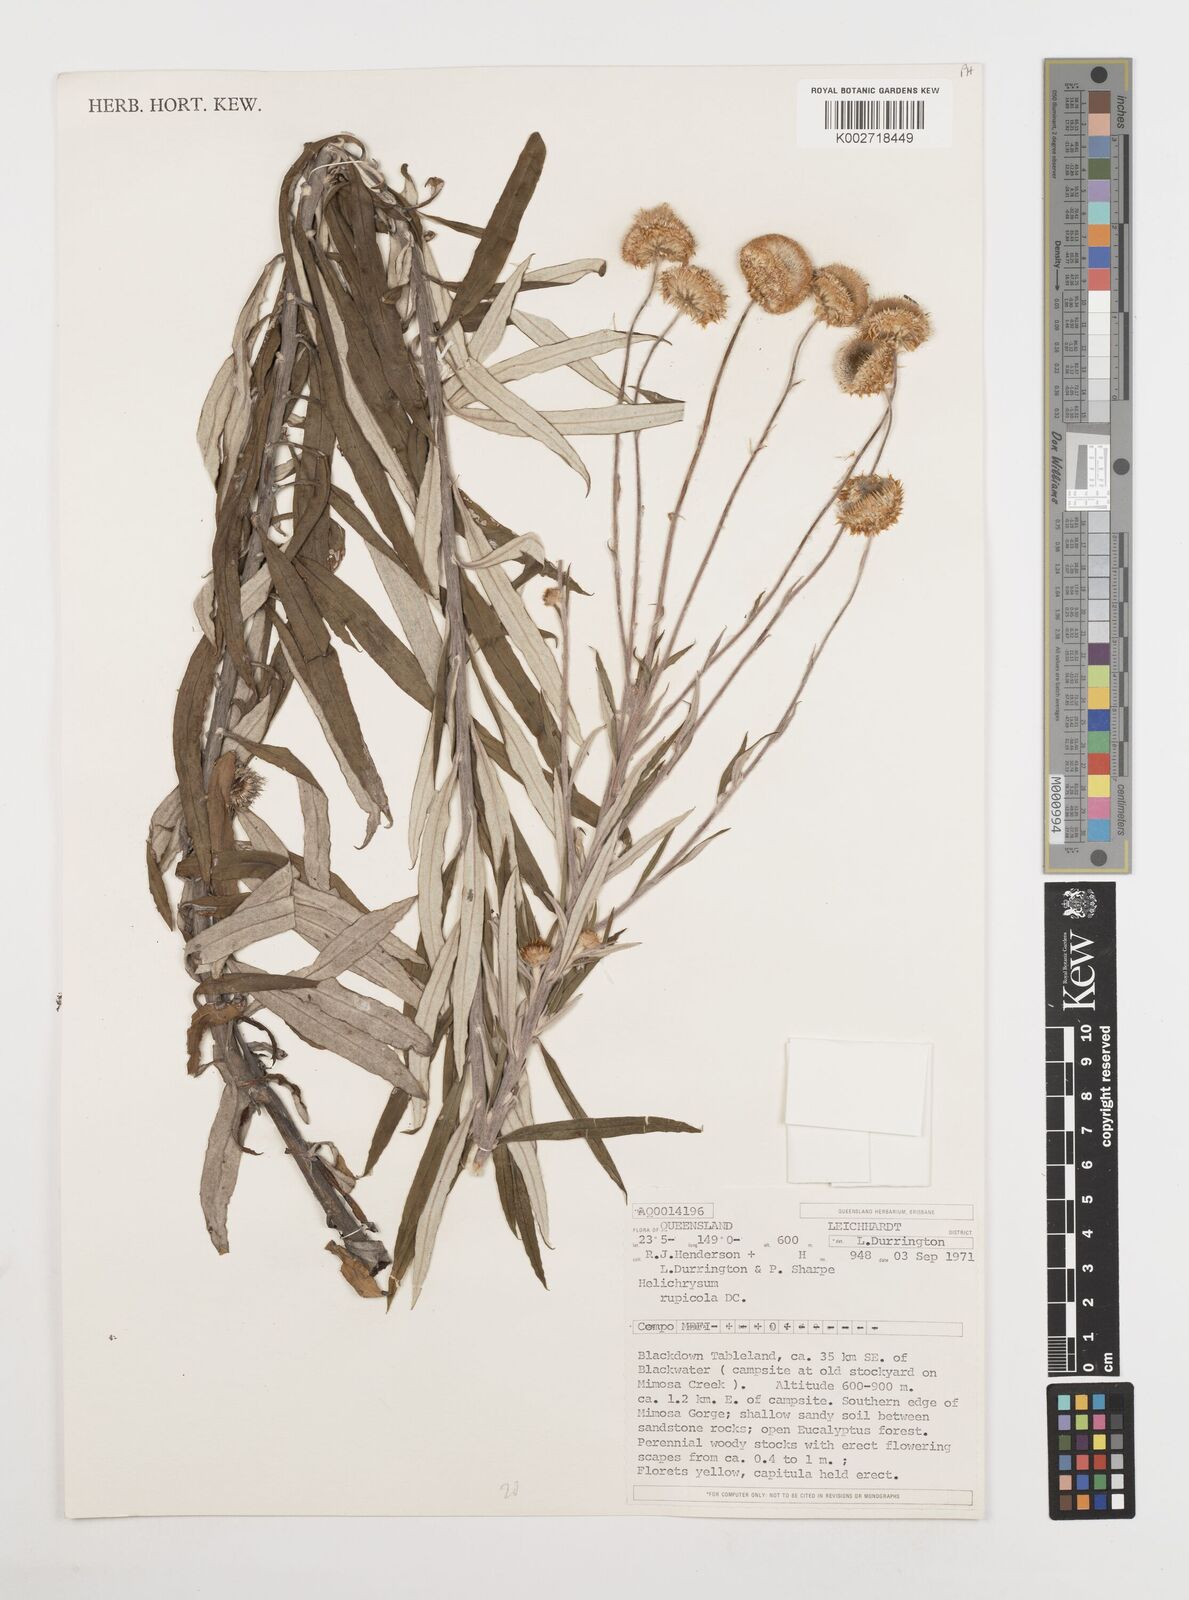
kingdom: Plantae
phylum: Tracheophyta
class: Magnoliopsida
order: Asterales
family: Asteraceae
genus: Coronidium
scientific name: Coronidium rupicola
